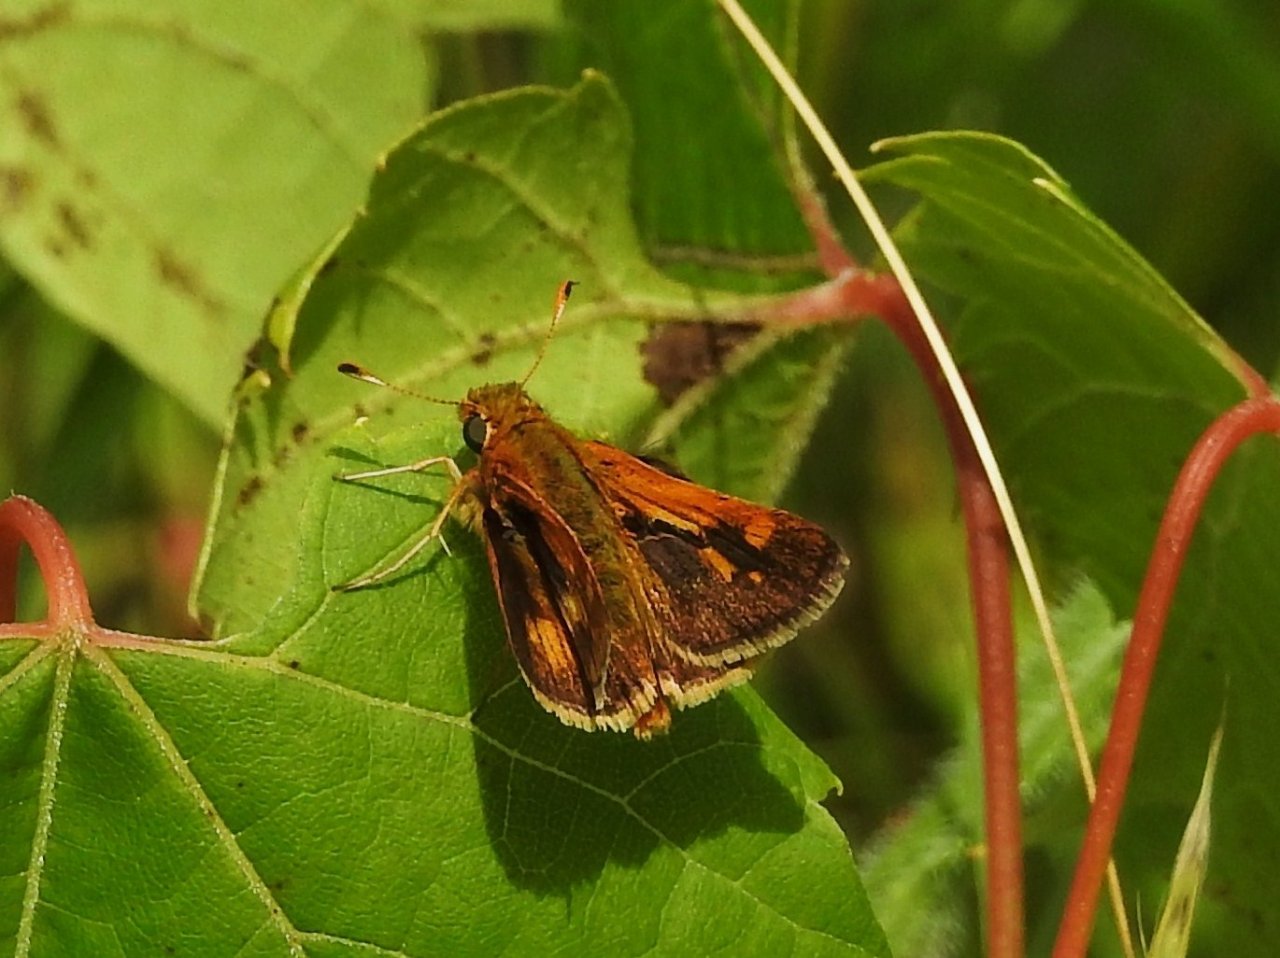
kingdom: Animalia
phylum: Arthropoda
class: Insecta
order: Lepidoptera
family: Hesperiidae
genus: Polites
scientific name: Polites coras
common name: Peck's Skipper
